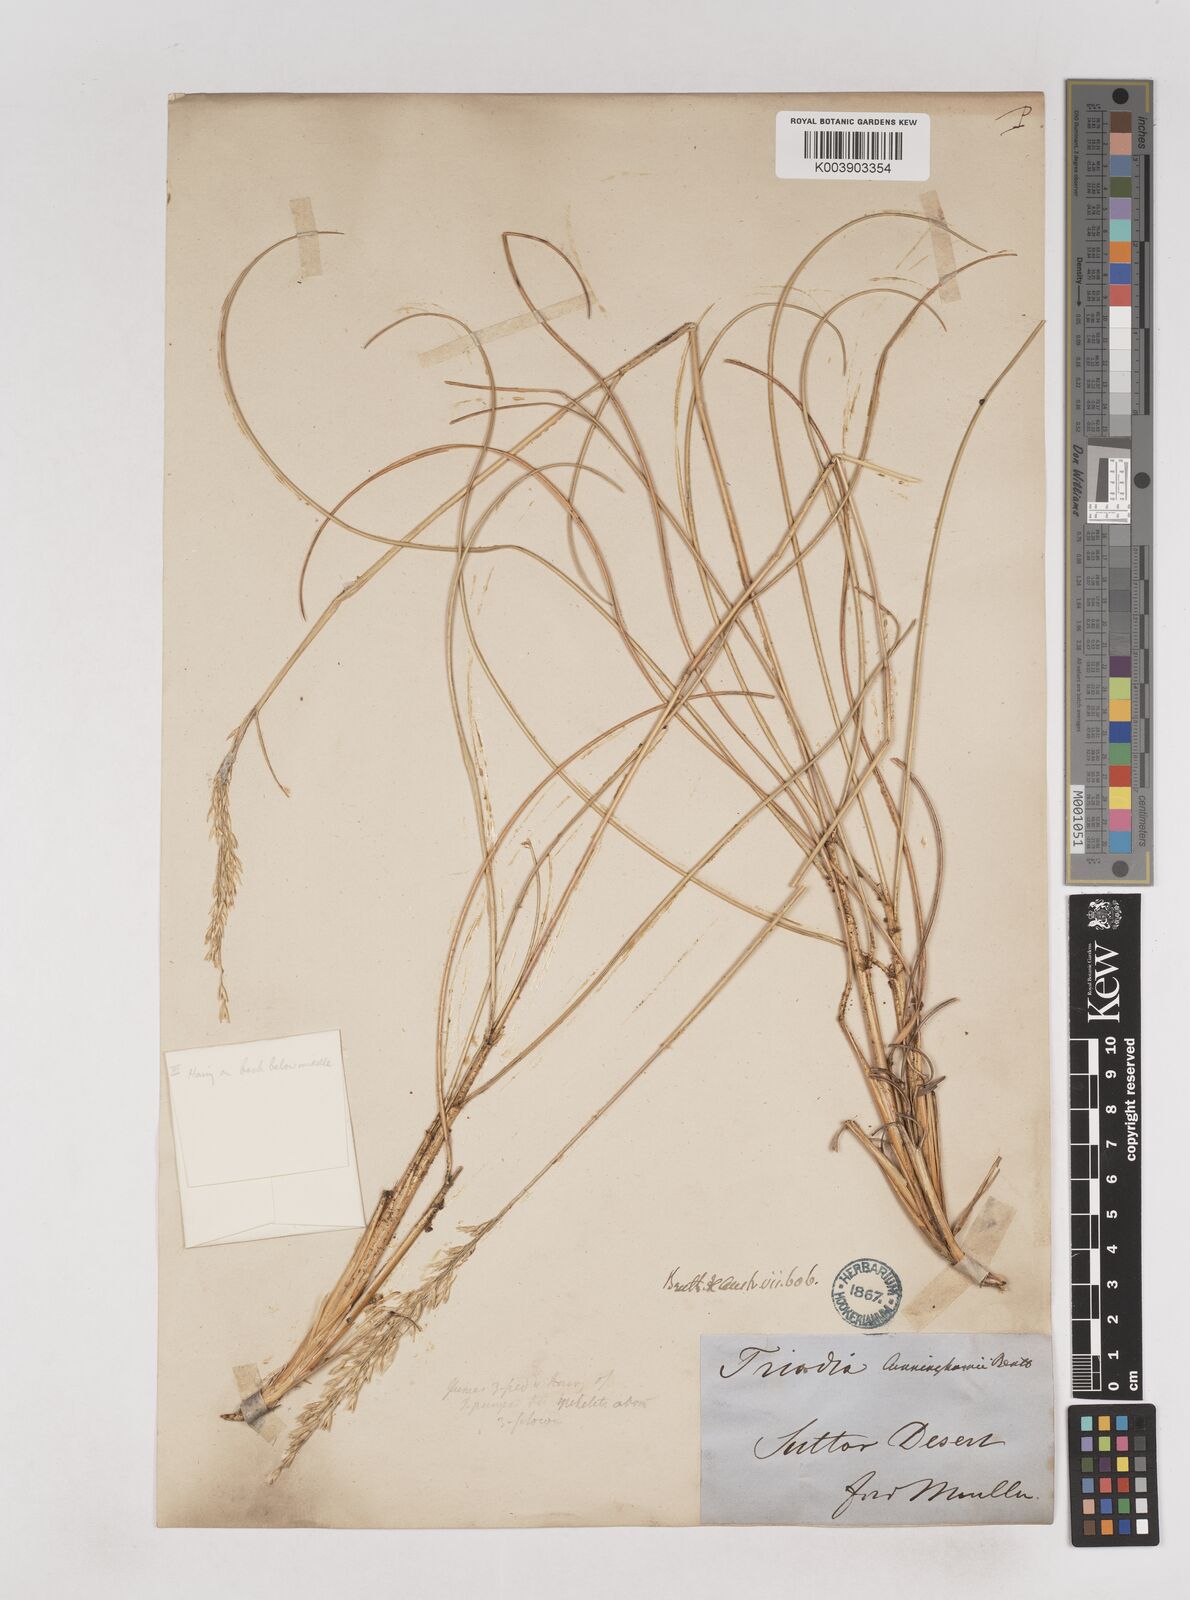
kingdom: Plantae
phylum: Tracheophyta
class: Liliopsida
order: Poales
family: Poaceae
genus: Triodia
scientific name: Triodia cunninghamii
